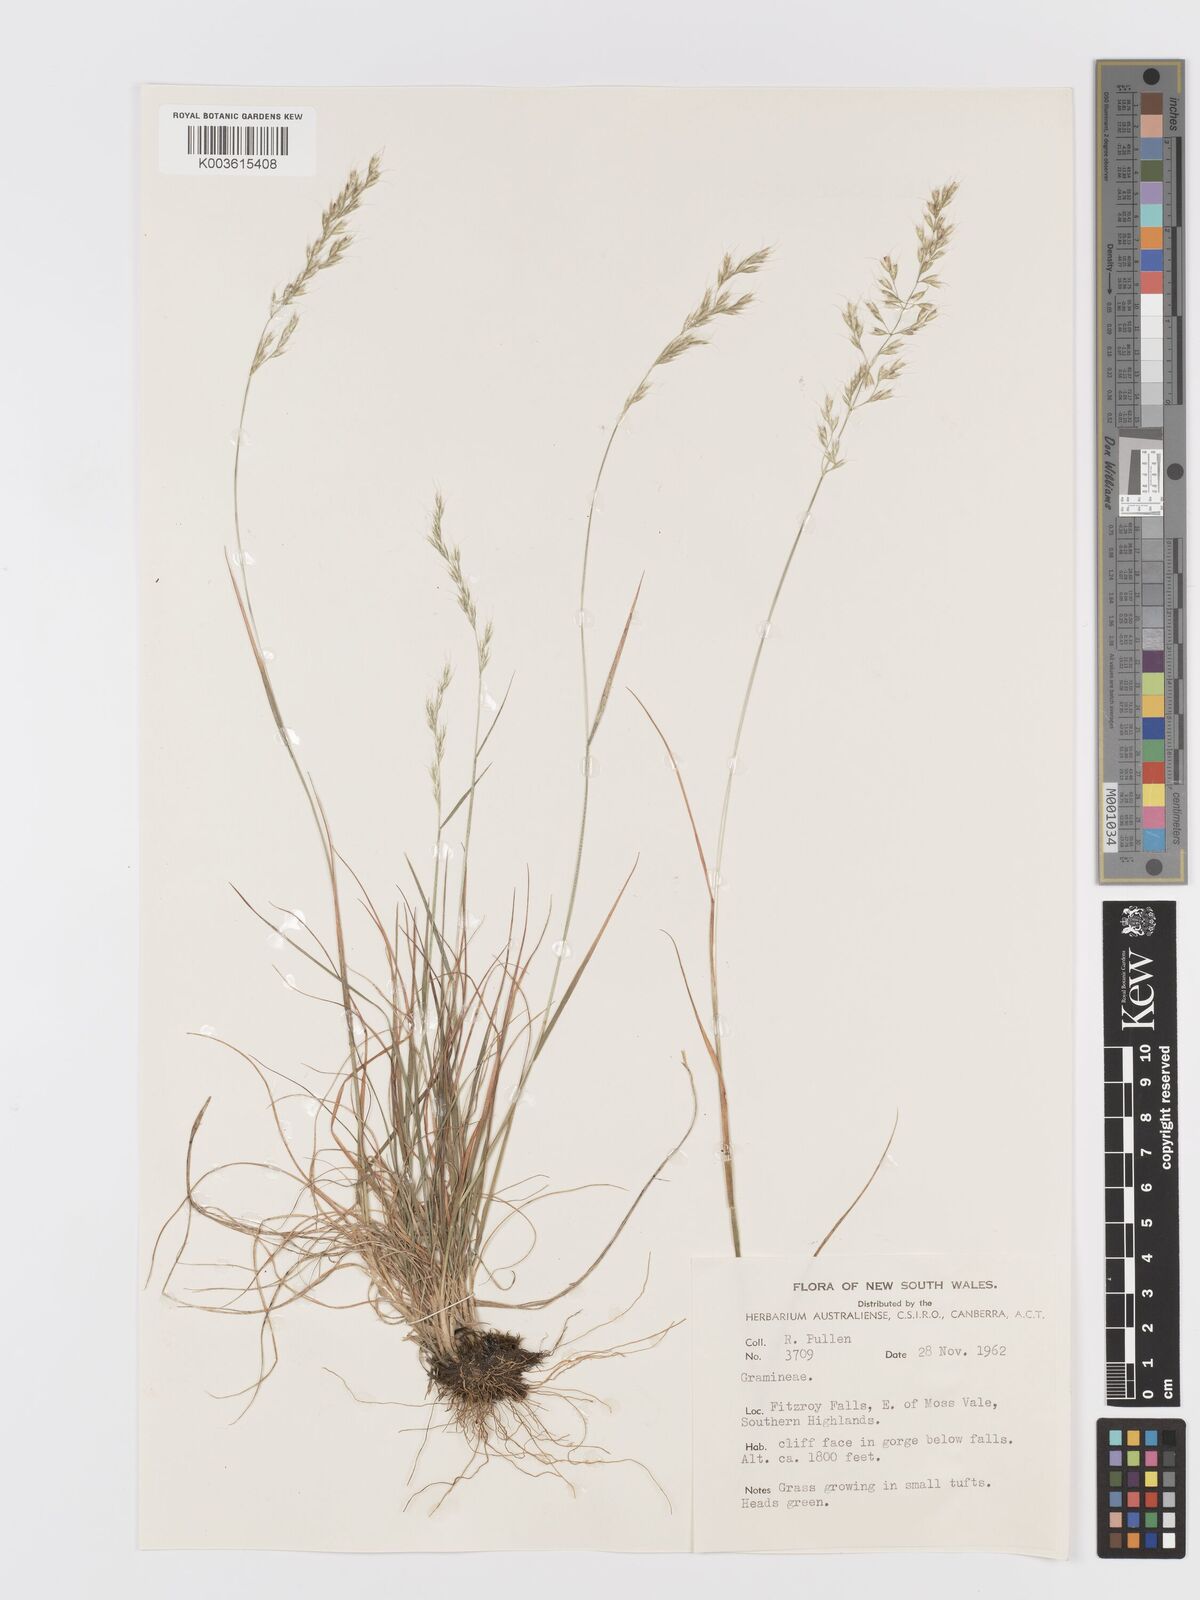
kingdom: Plantae
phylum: Tracheophyta
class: Liliopsida
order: Poales
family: Poaceae
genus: Trisetum
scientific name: Trisetum
